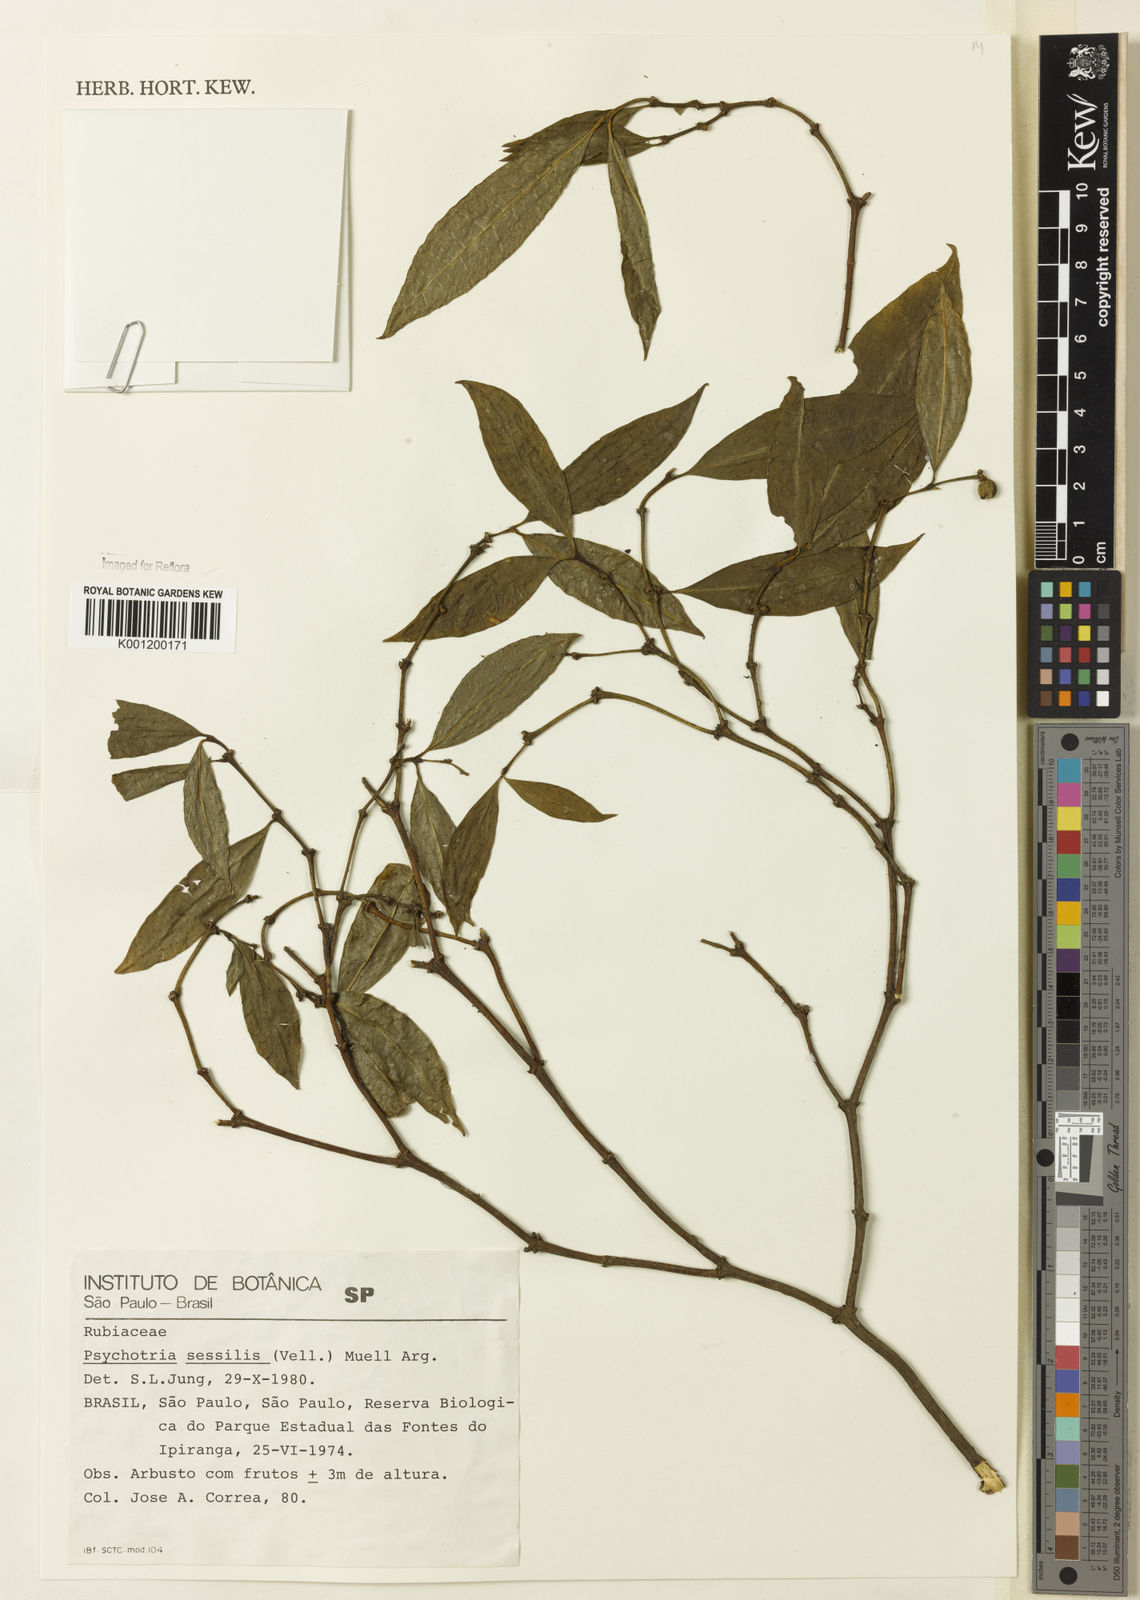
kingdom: Plantae
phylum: Tracheophyta
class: Magnoliopsida
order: Gentianales
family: Rubiaceae
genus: Rudgea
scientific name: Rudgea sessilis
